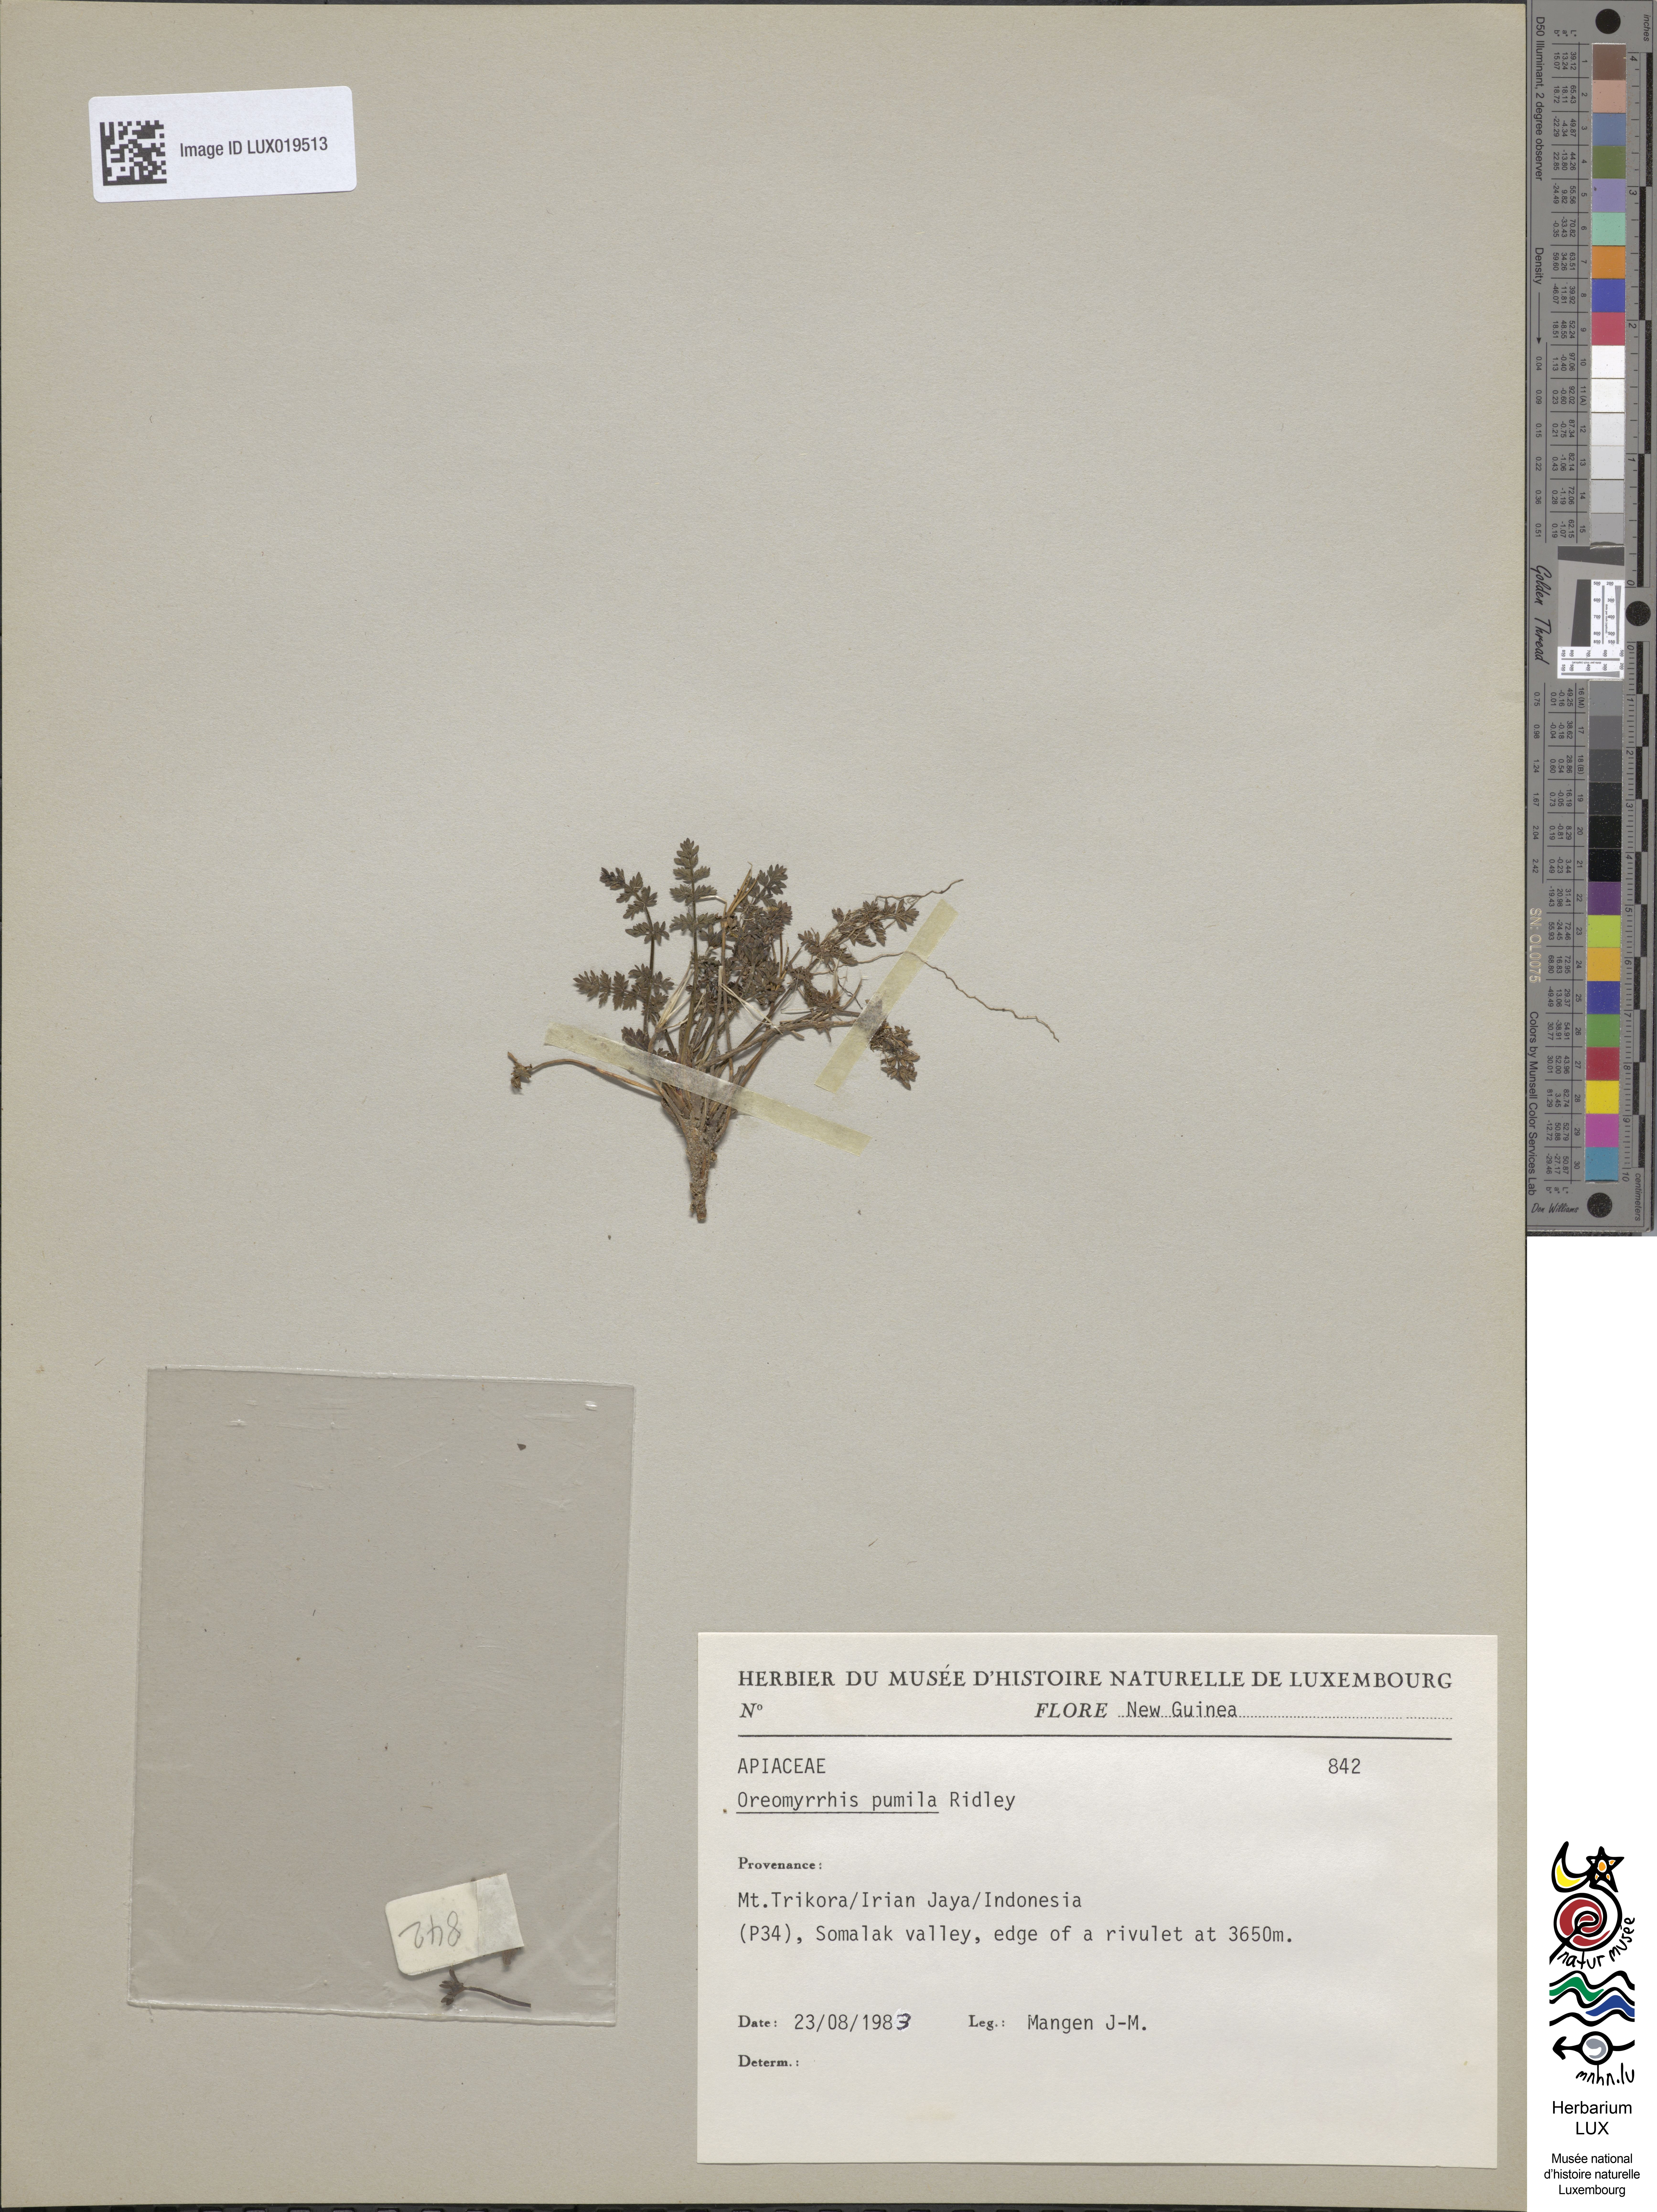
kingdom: Plantae
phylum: Tracheophyta
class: Magnoliopsida
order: Apiales
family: Apiaceae
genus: Chaerophyllum
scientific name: Chaerophyllum pumilum
